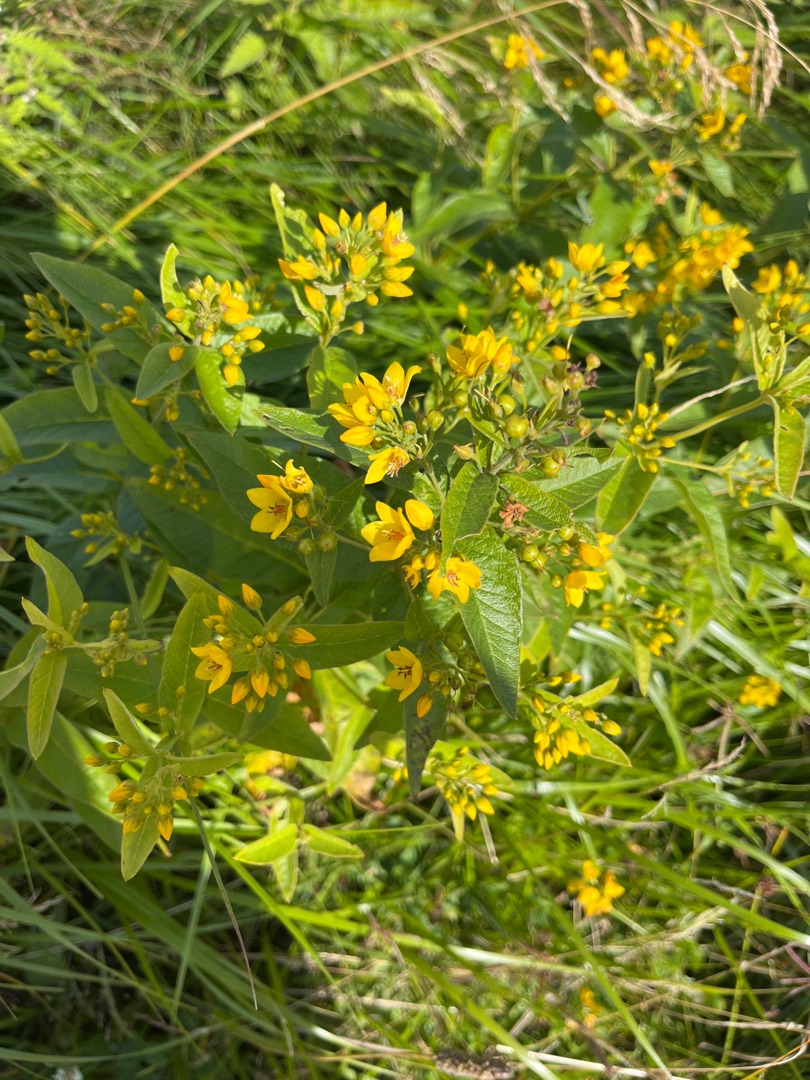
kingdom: Plantae
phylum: Tracheophyta
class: Magnoliopsida
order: Ericales
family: Primulaceae
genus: Lysimachia
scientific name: Lysimachia vulgaris
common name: Almindelig fredløs
